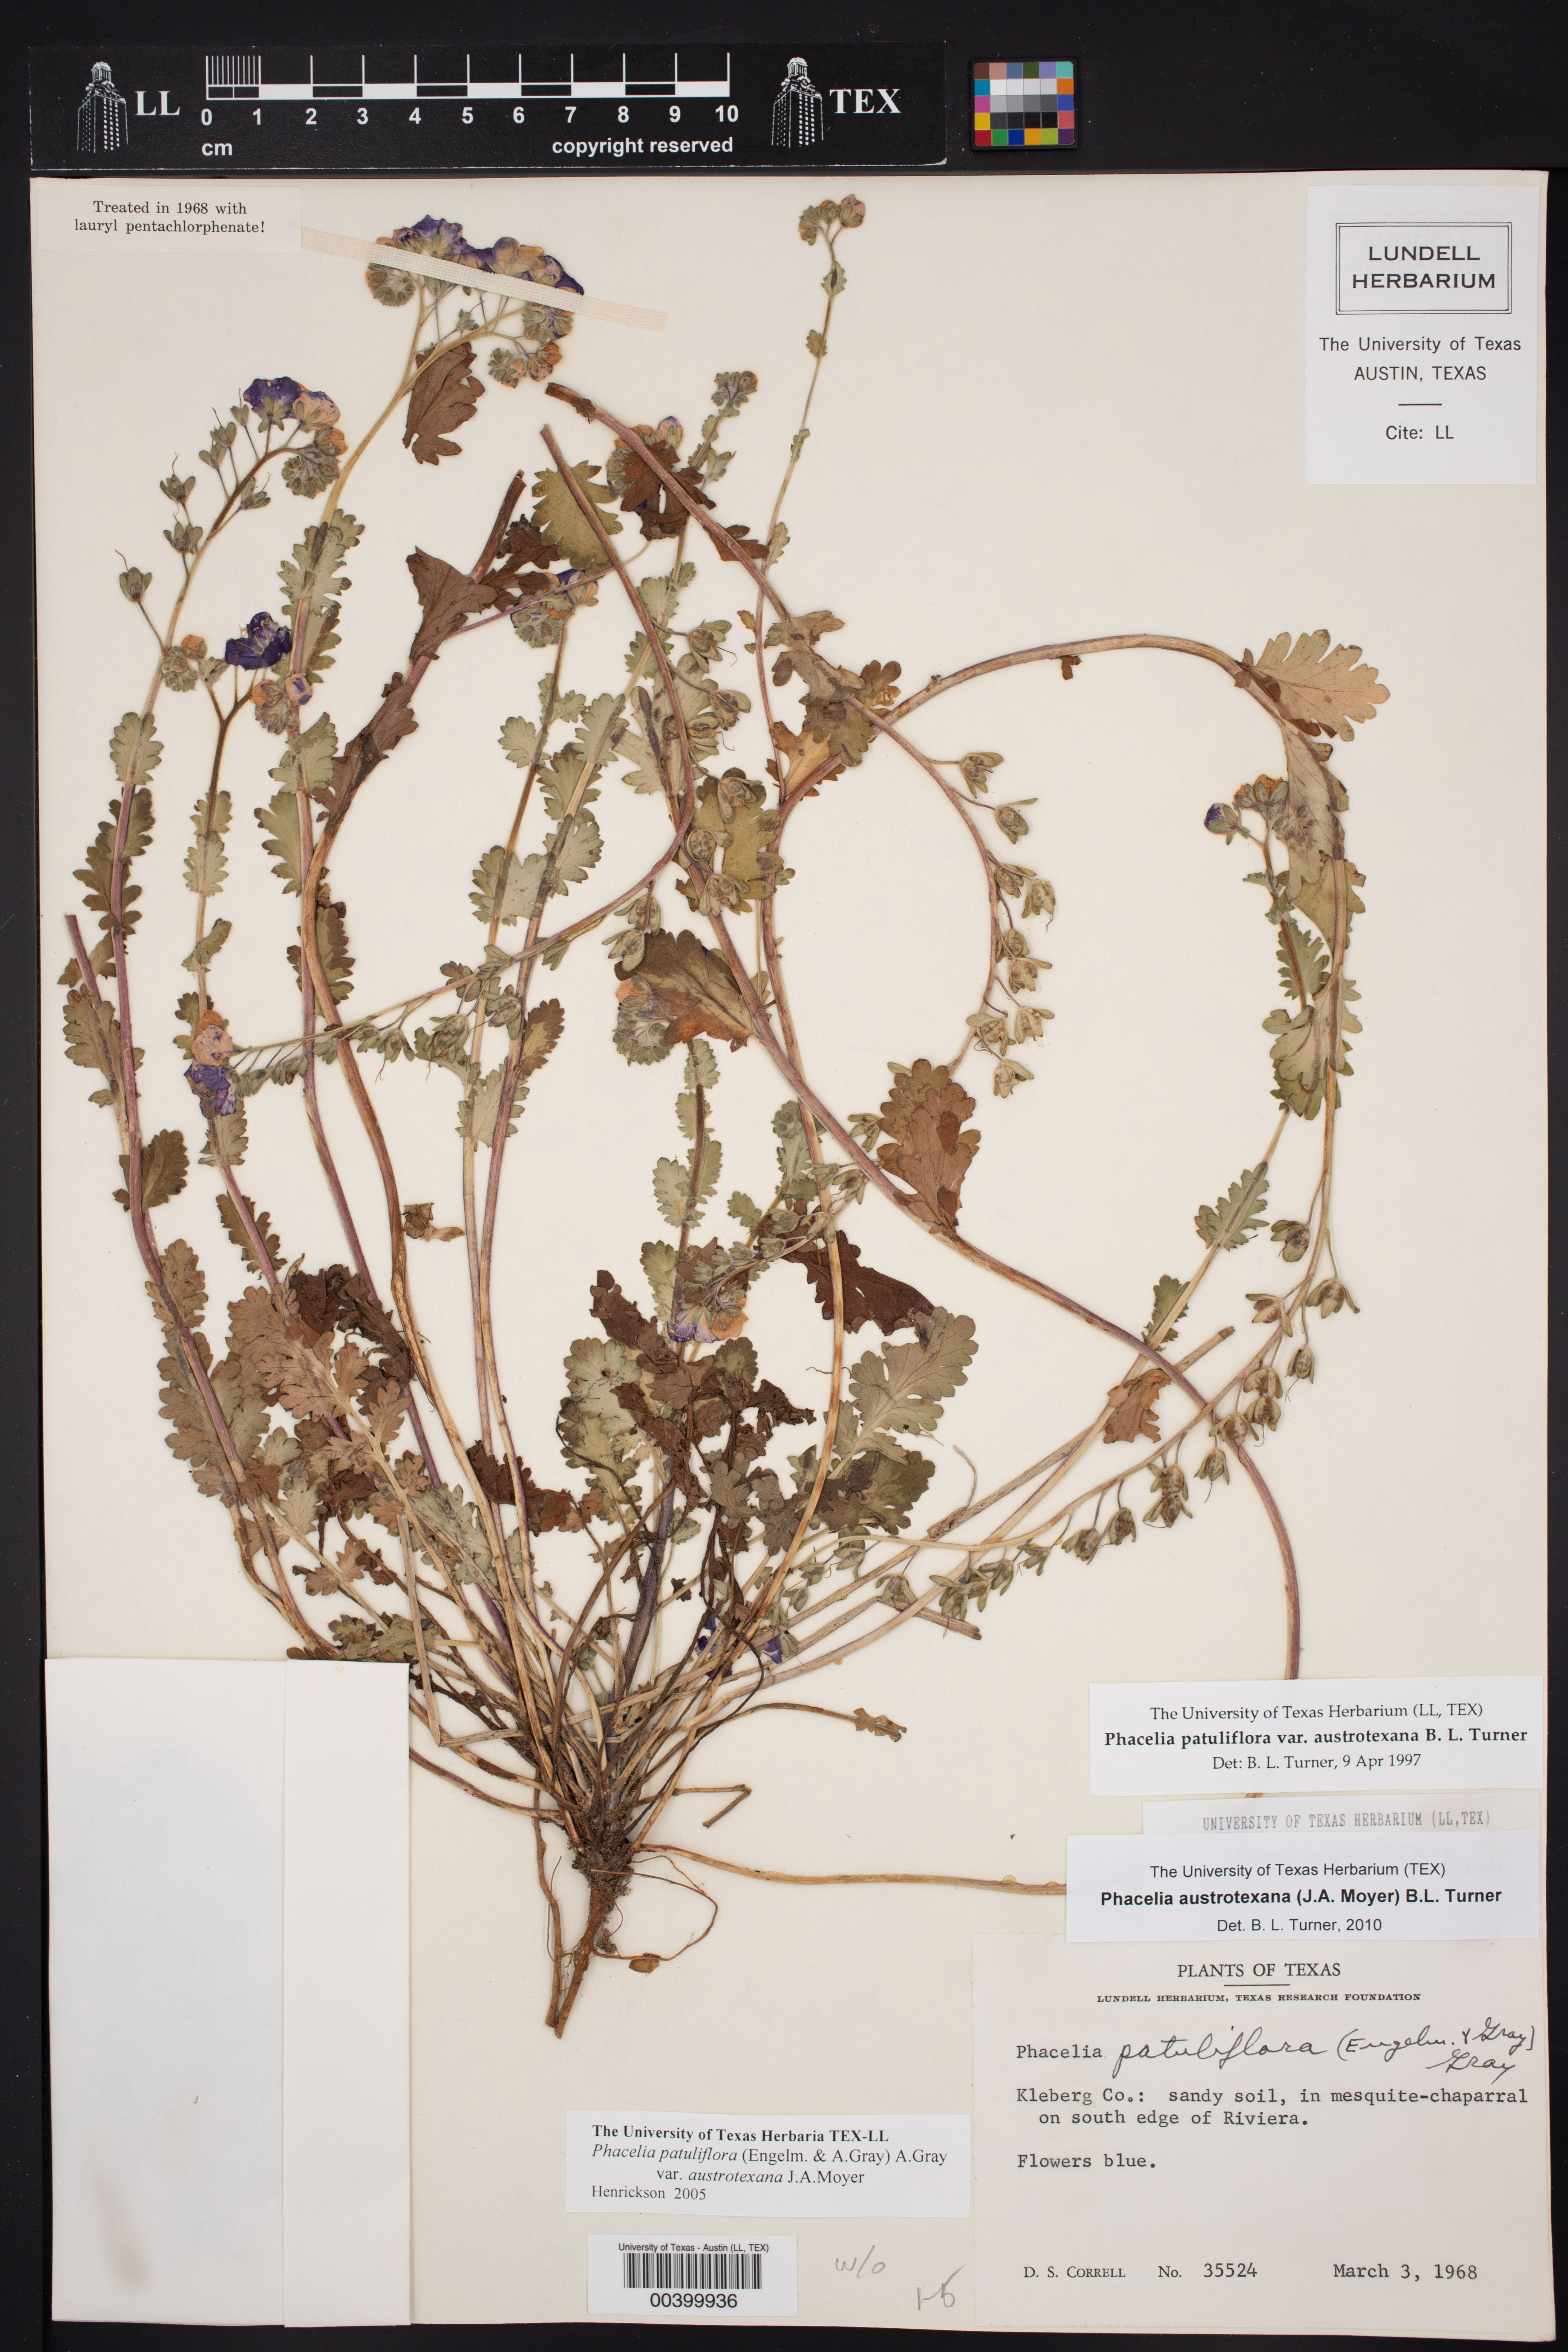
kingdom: Plantae
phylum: Tracheophyta
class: Magnoliopsida
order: Boraginales
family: Hydrophyllaceae
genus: Phacelia
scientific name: Phacelia austrotexana
